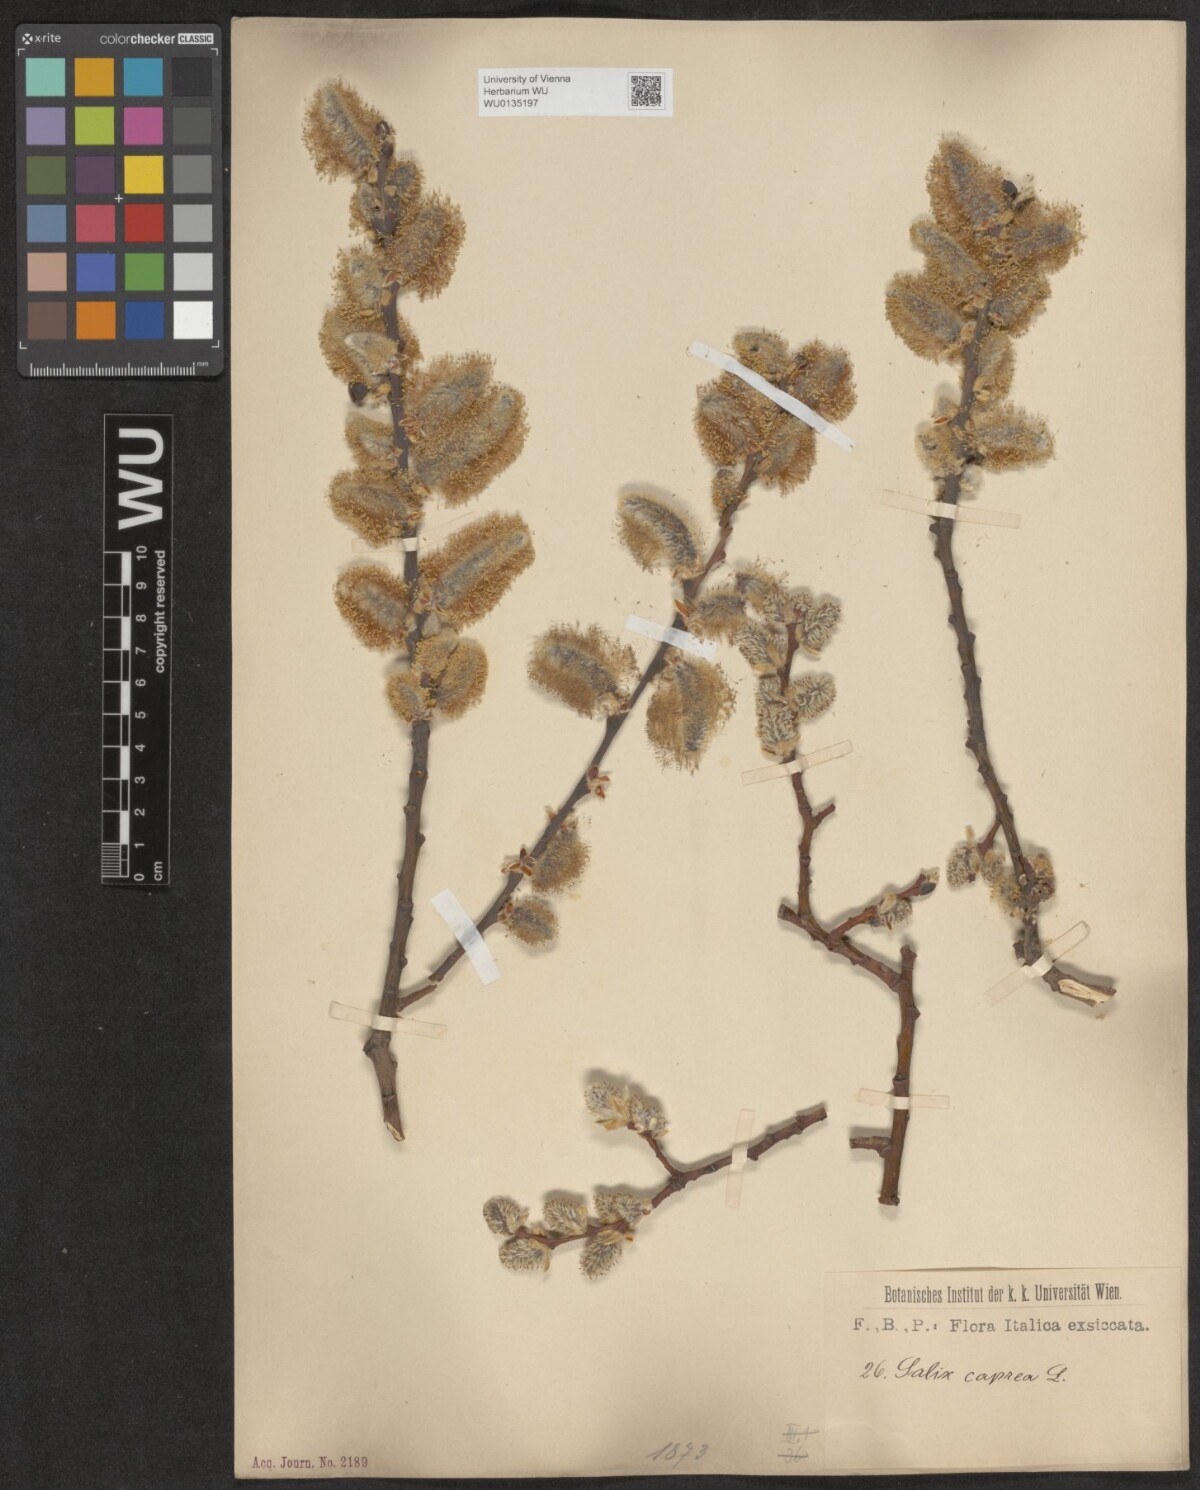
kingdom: Plantae
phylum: Tracheophyta
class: Magnoliopsida
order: Malpighiales
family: Salicaceae
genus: Salix
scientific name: Salix caprea
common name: Goat willow
